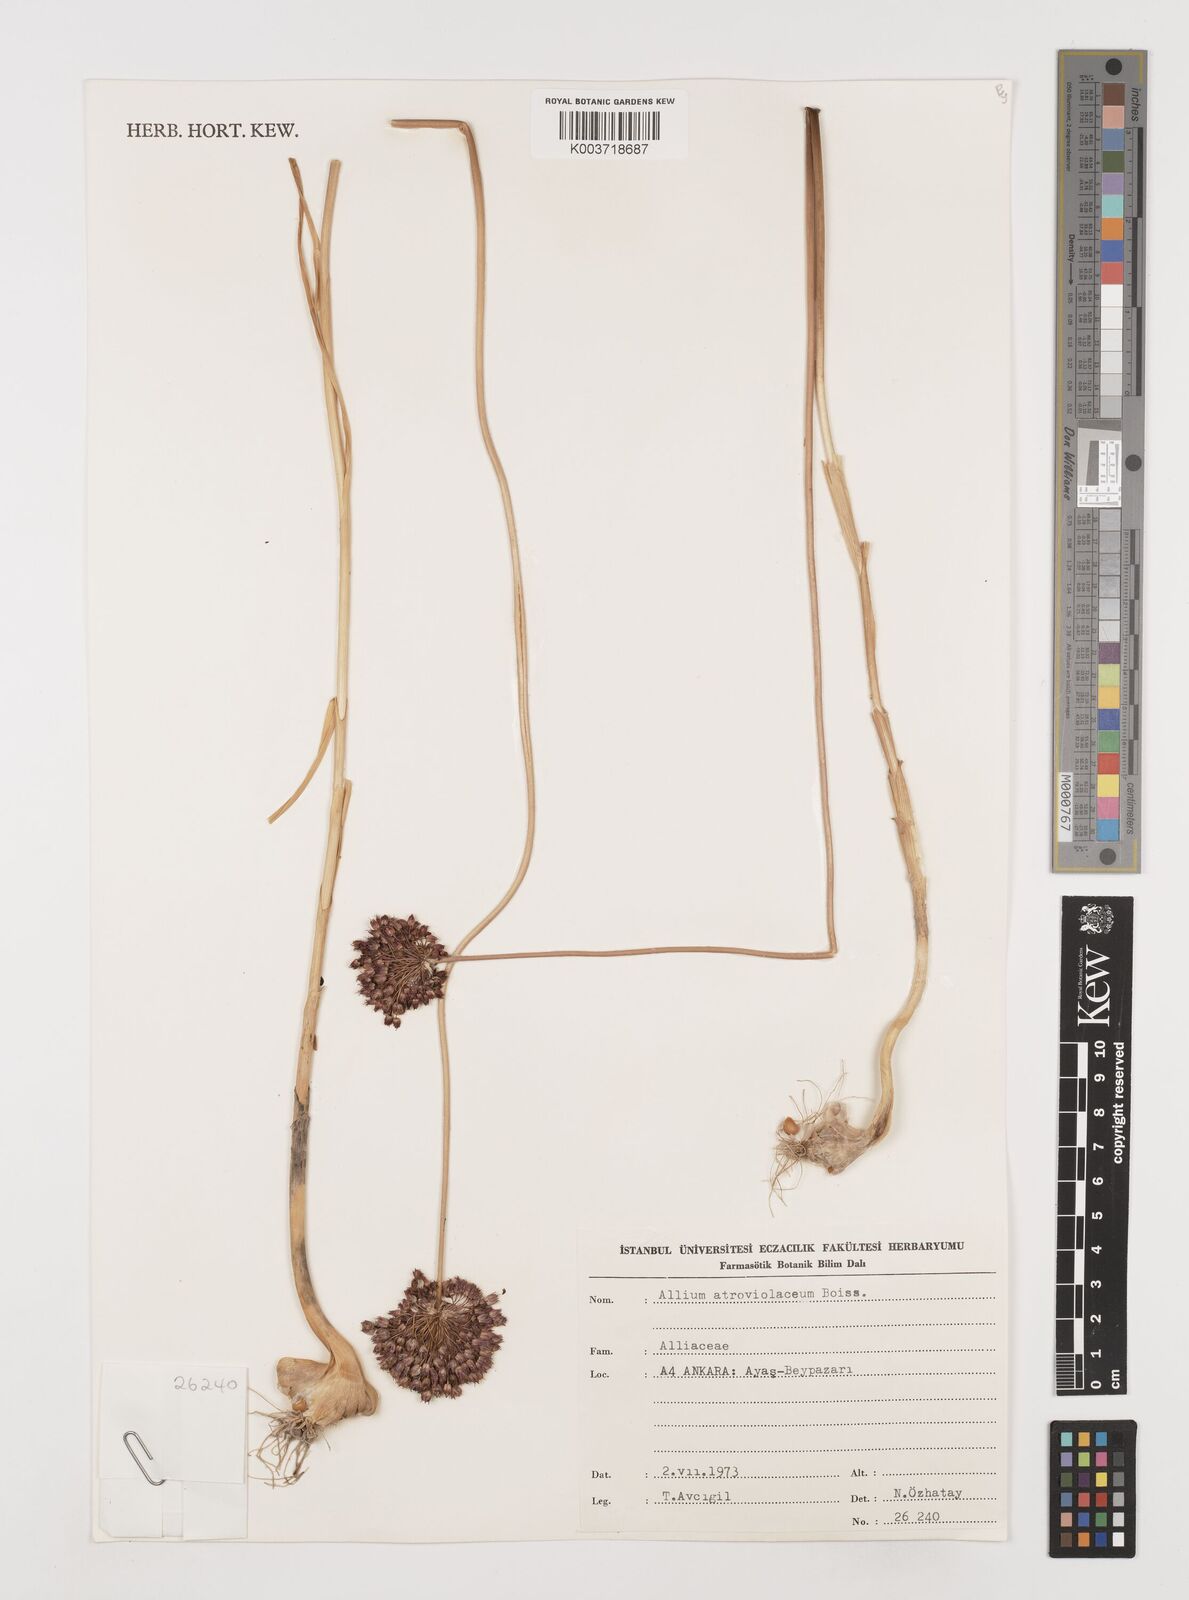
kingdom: Plantae
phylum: Tracheophyta
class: Liliopsida
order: Asparagales
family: Amaryllidaceae
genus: Allium
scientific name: Allium atroviolaceum
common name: Broadleaf wild leek
